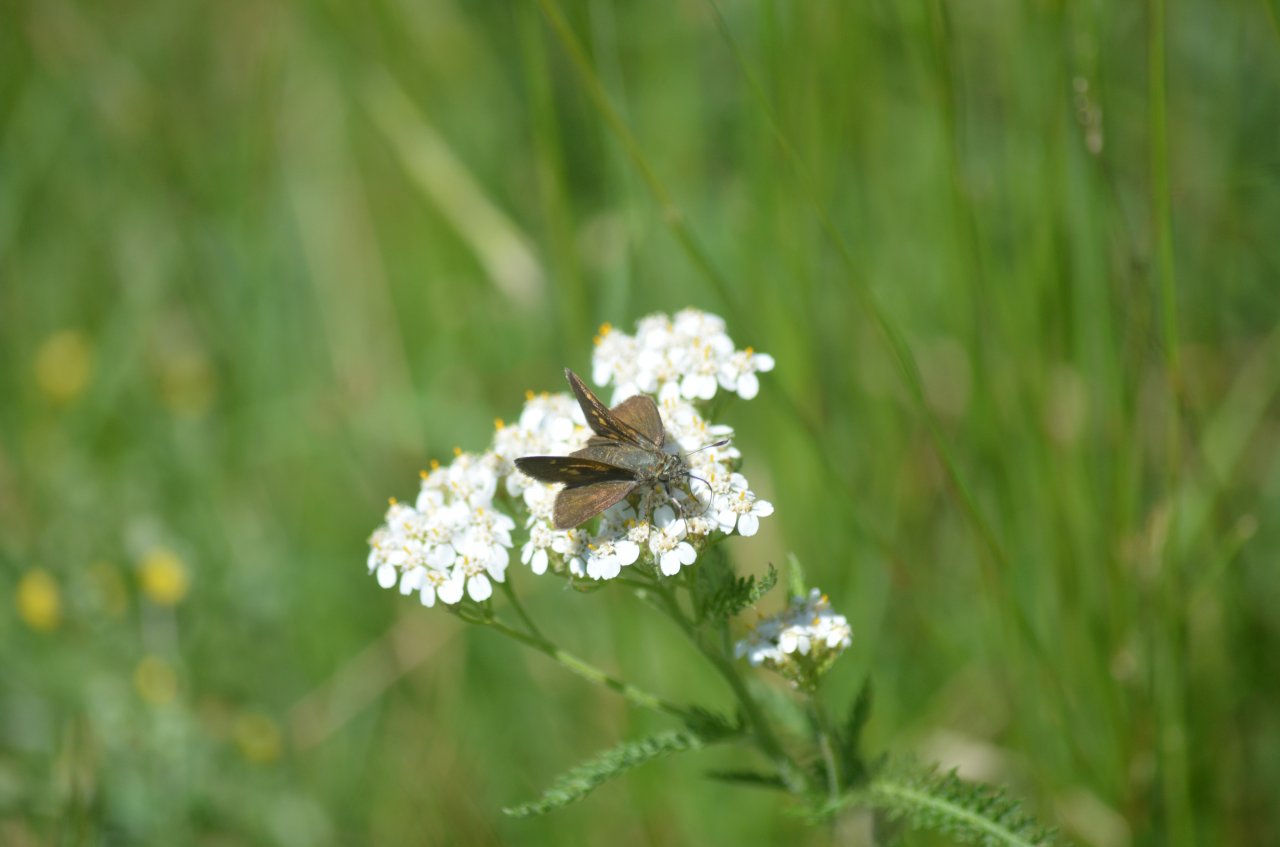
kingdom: Animalia
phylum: Arthropoda
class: Insecta
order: Lepidoptera
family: Hesperiidae
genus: Polites
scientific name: Polites egeremet
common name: Northern Broken-Dash
